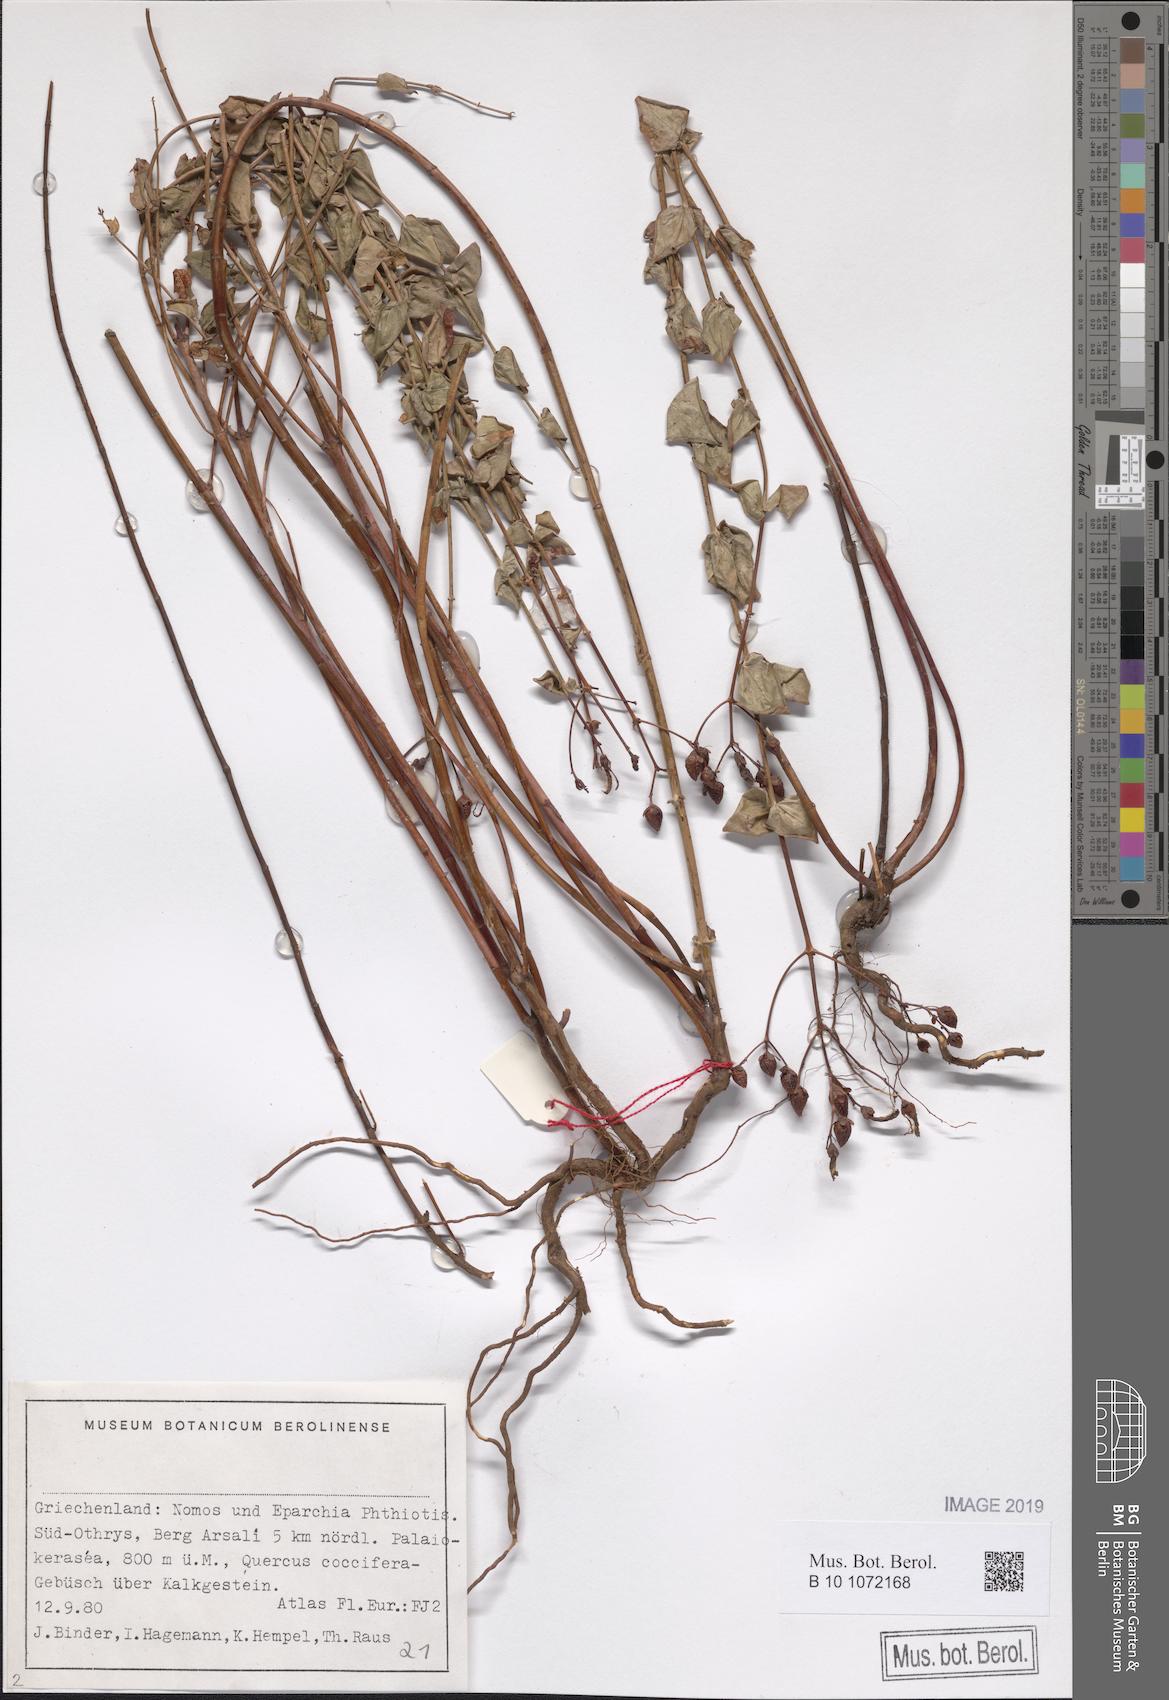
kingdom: Plantae
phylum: Tracheophyta
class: Magnoliopsida
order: Malpighiales
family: Hypericaceae
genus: Hypericum
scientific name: Hypericum vesiculosum
